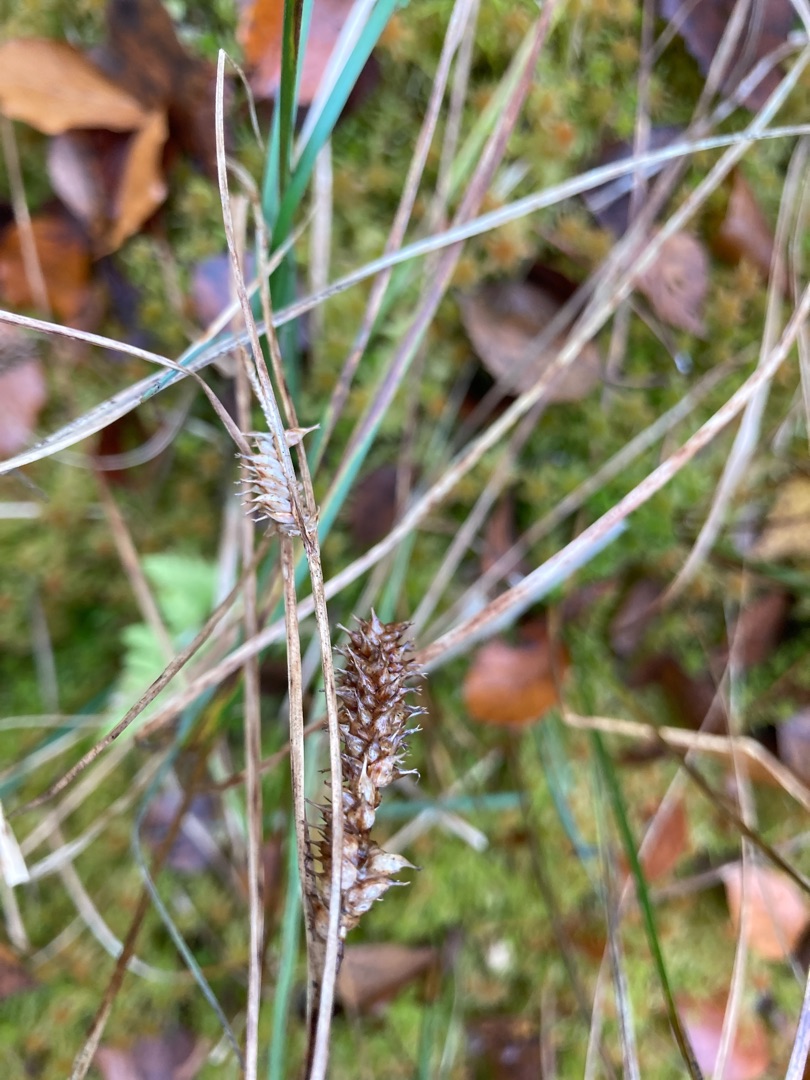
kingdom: Plantae
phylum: Tracheophyta
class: Liliopsida
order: Poales
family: Cyperaceae
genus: Carex
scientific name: Carex rostrata
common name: Næb-star
